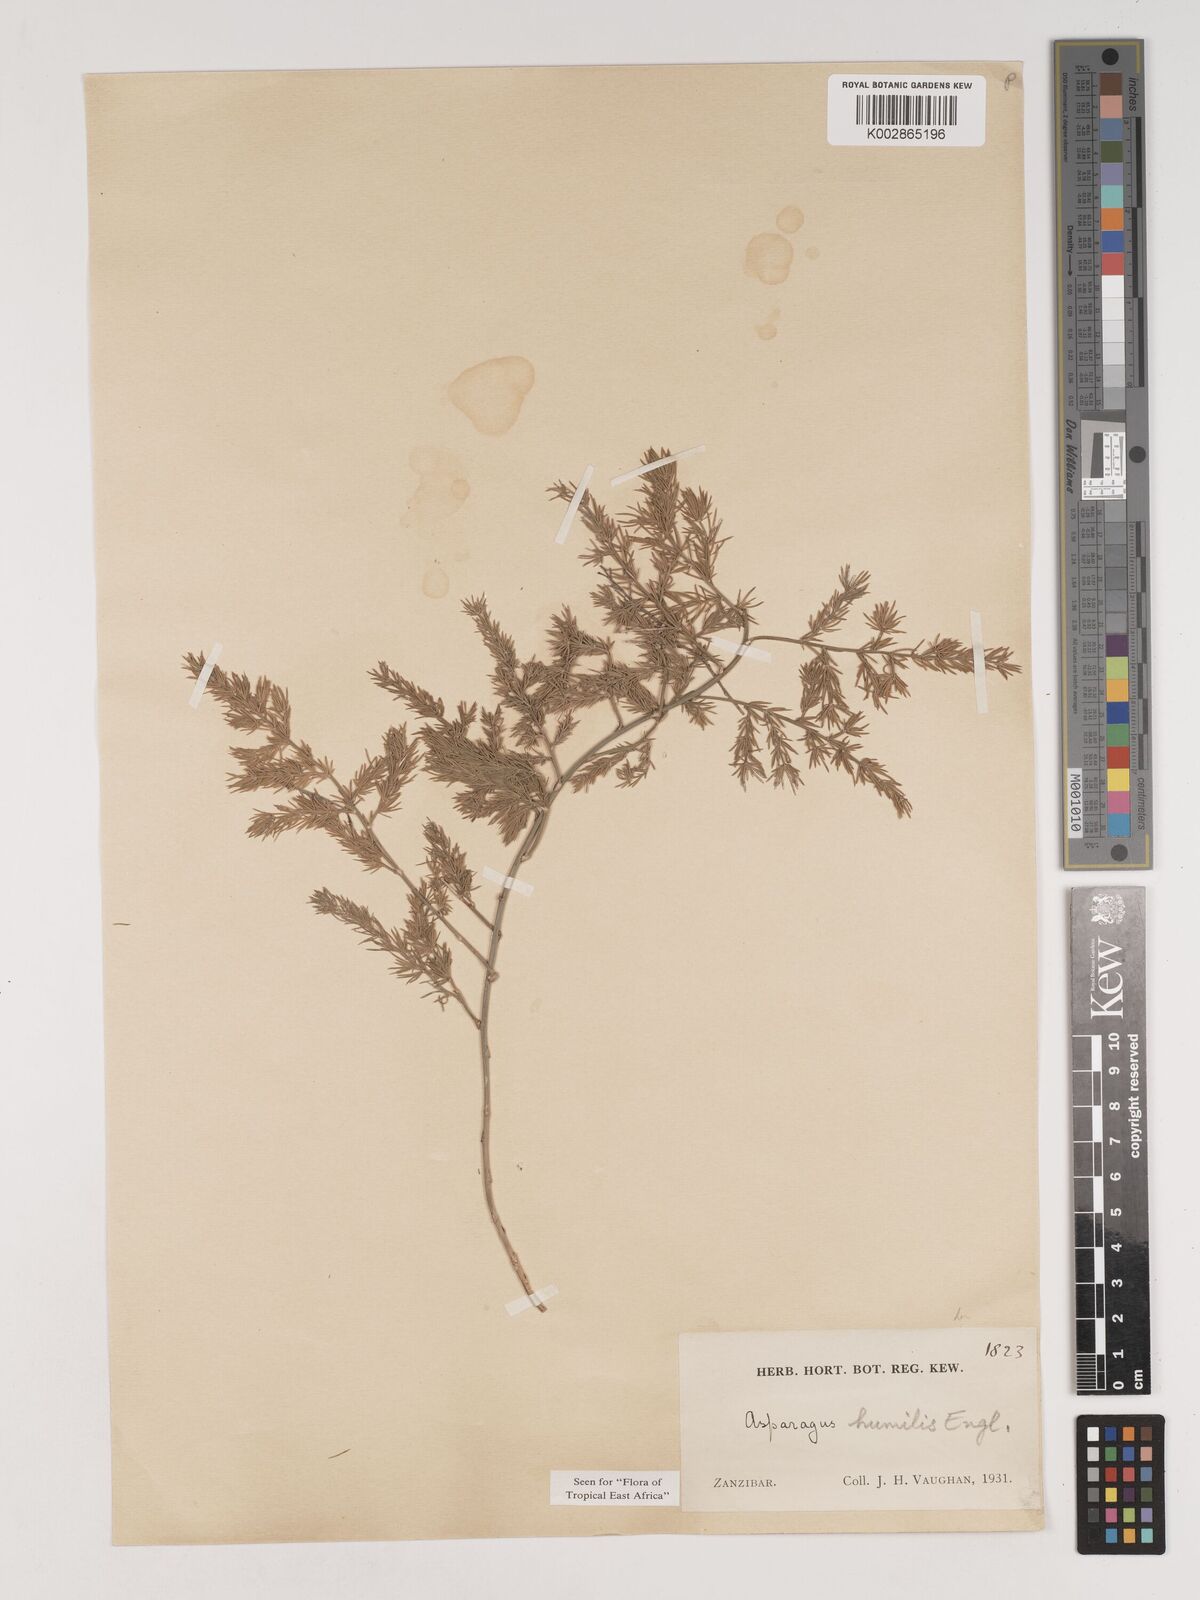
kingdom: Plantae
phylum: Tracheophyta
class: Liliopsida
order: Asparagales
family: Asparagaceae
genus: Asparagus
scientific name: Asparagus asparagoides
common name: African asparagus fern
